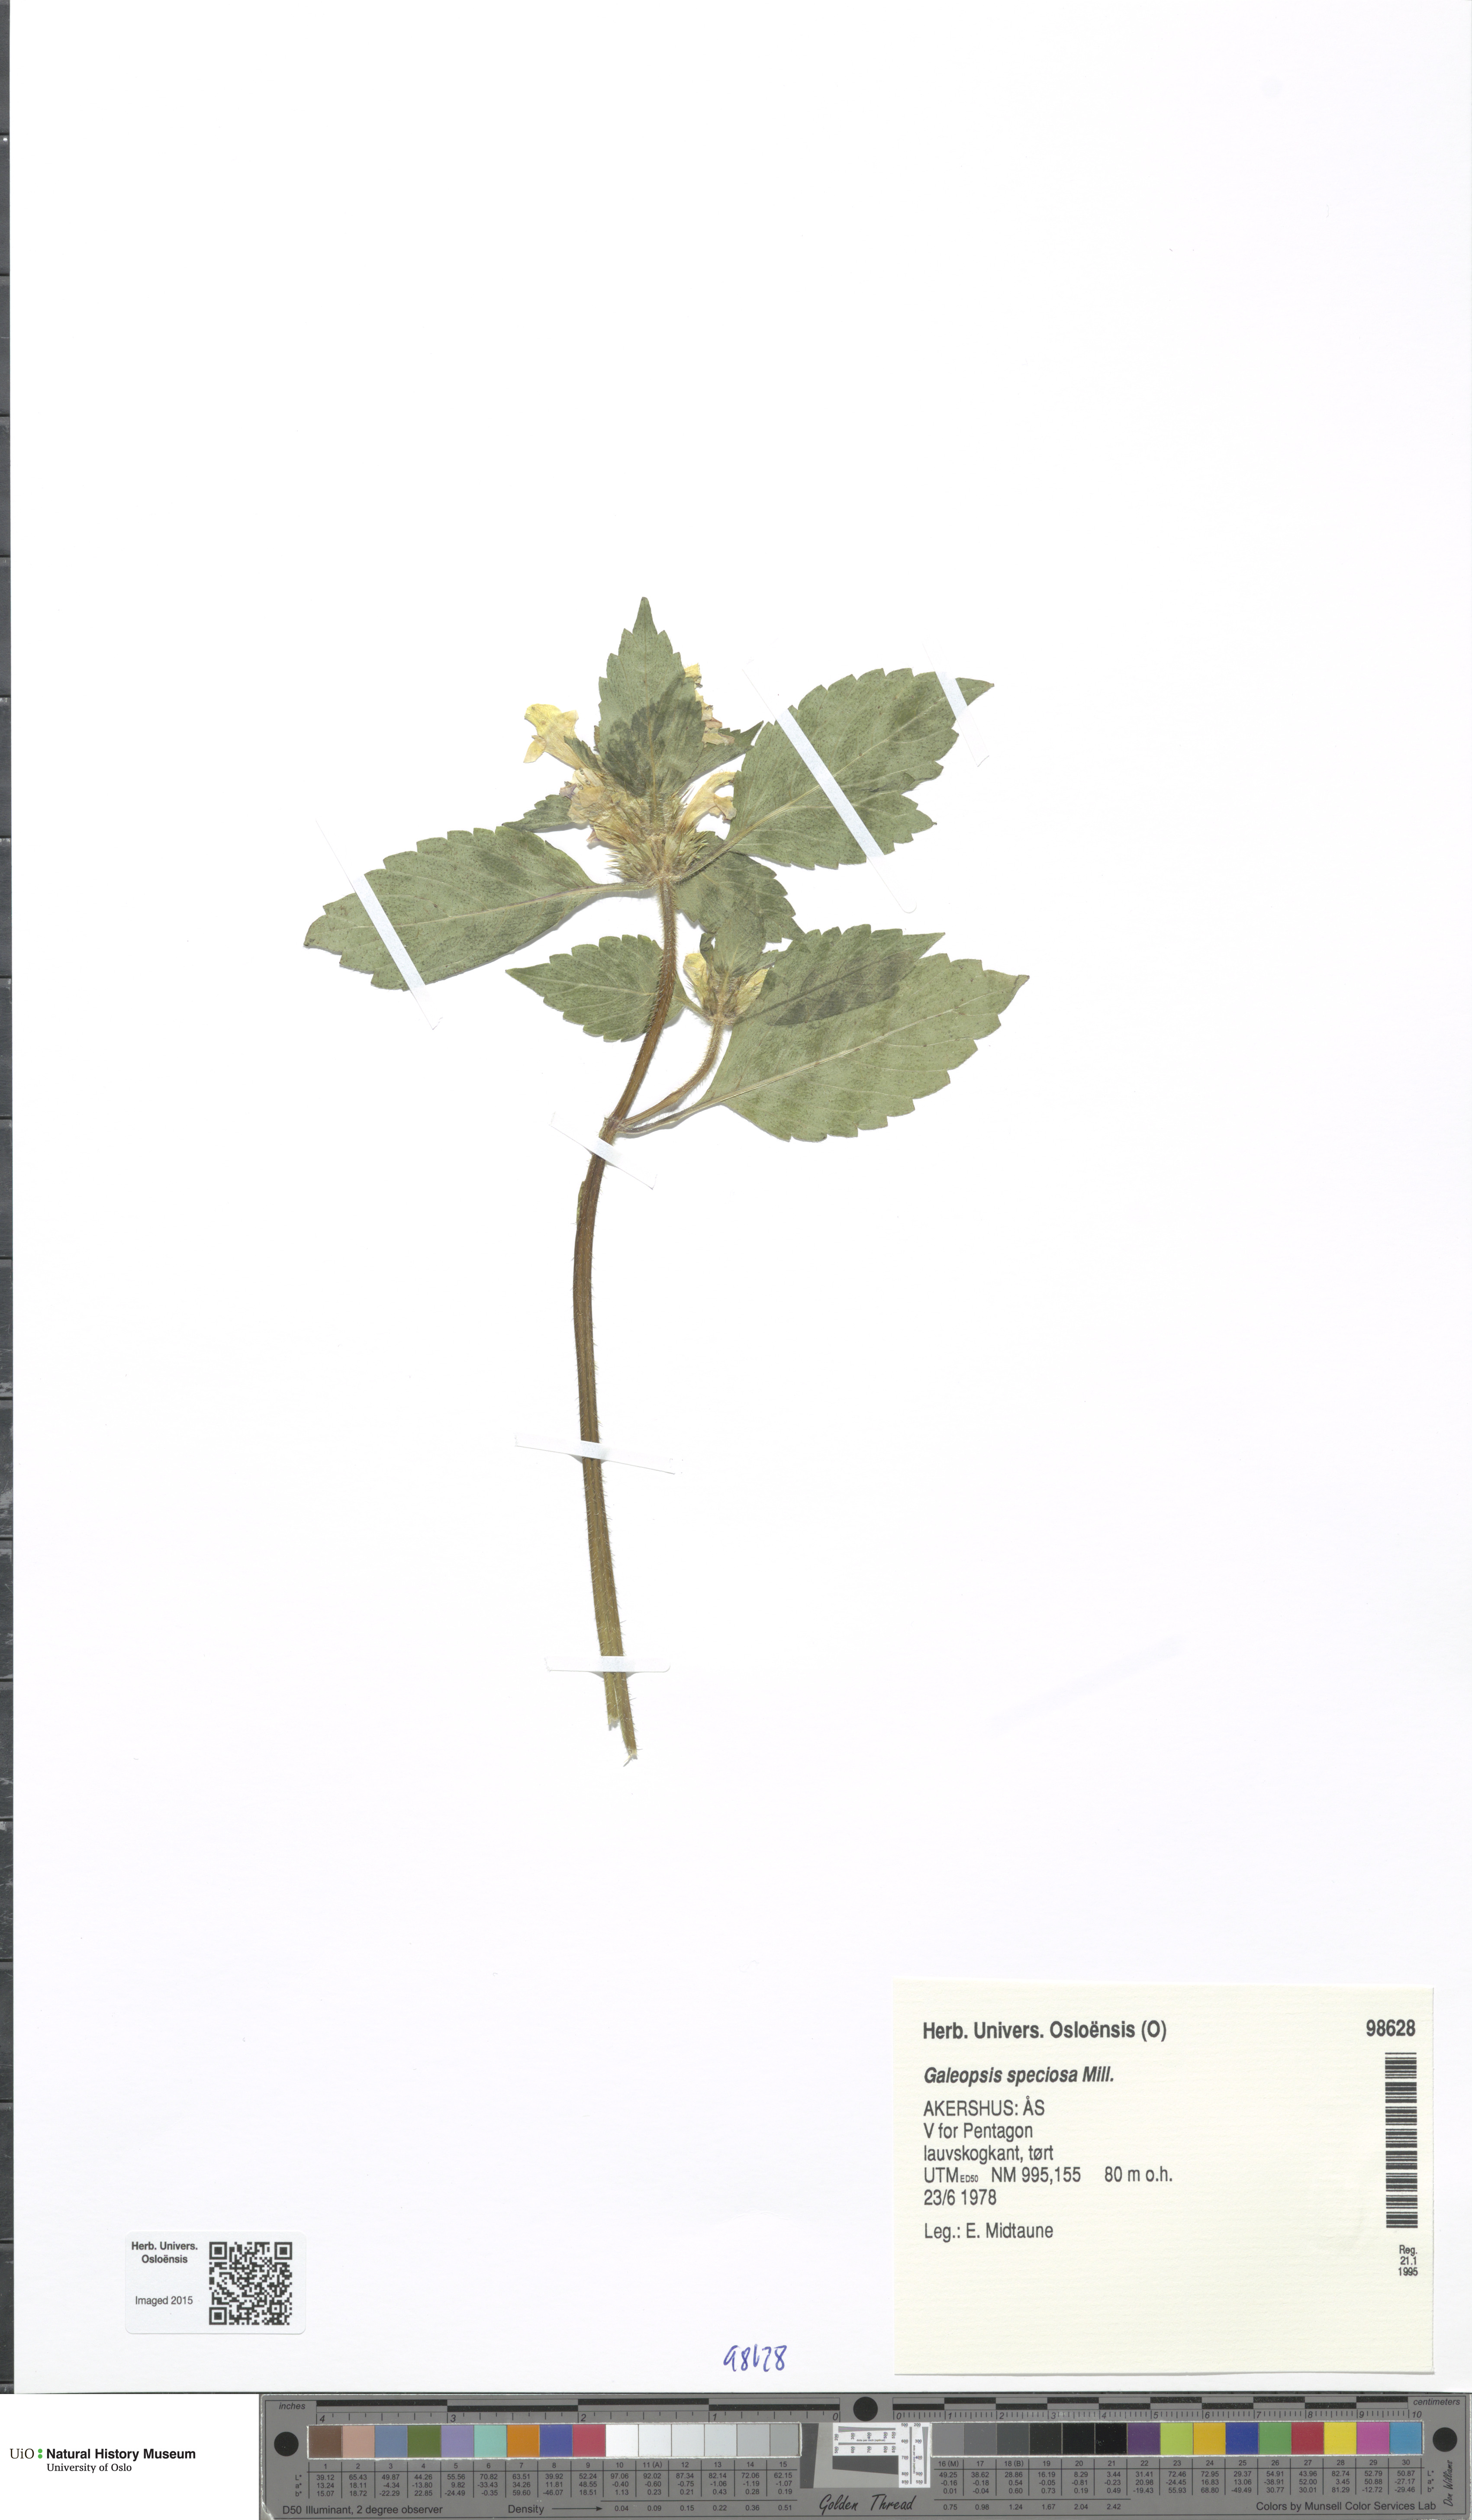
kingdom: Plantae
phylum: Tracheophyta
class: Magnoliopsida
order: Lamiales
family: Lamiaceae
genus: Galeopsis
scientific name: Galeopsis speciosa
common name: Large-flowered hemp-nettle
